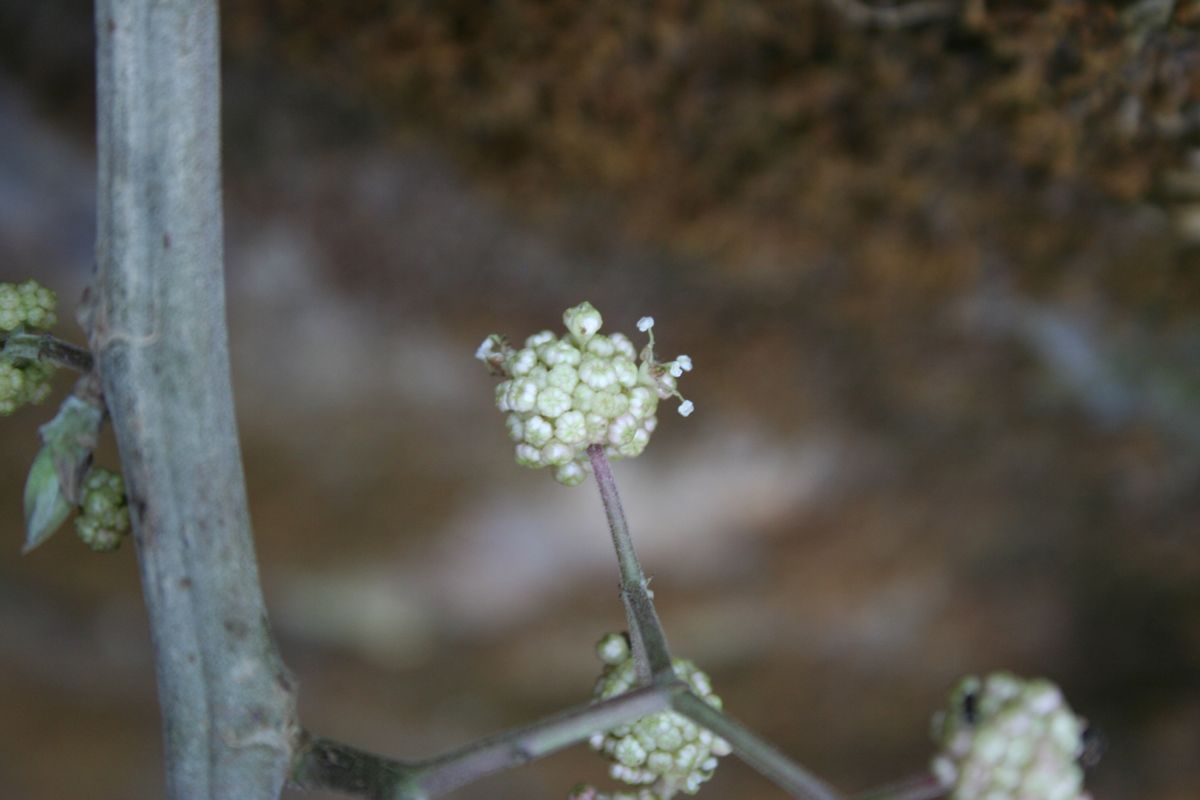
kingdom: Plantae
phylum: Tracheophyta
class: Magnoliopsida
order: Rosales
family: Urticaceae
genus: Urera
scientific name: Urera caracasana
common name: Flameberry
